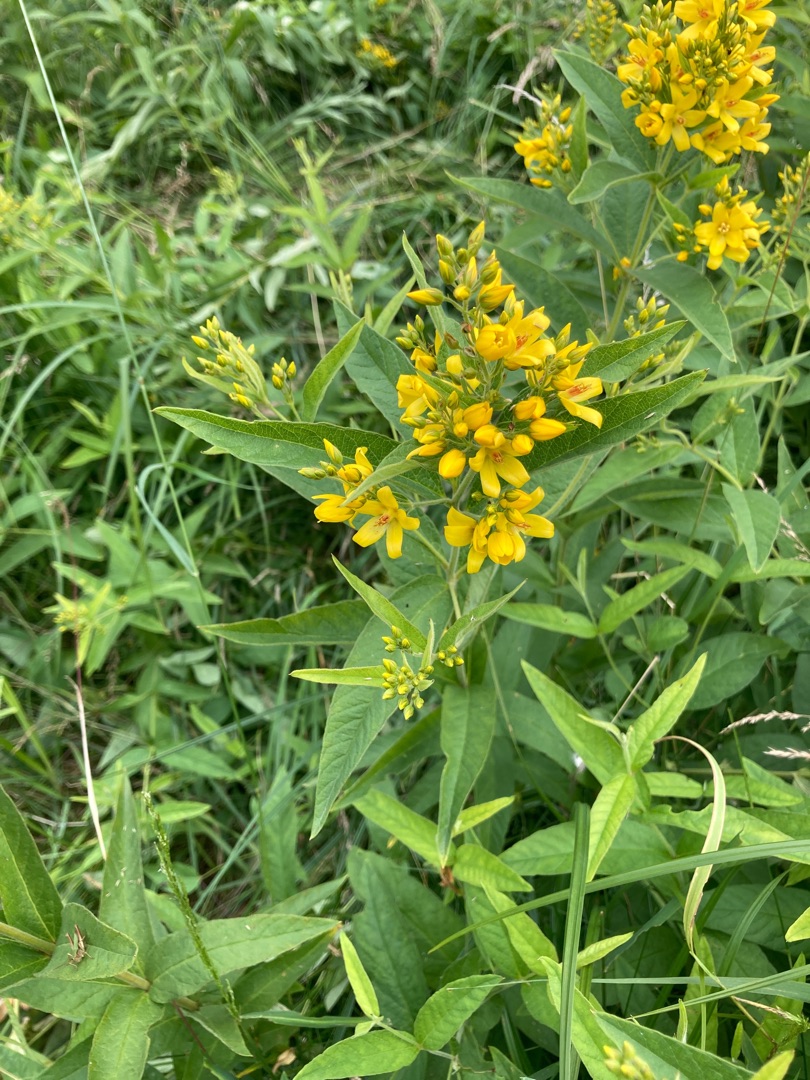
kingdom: Plantae
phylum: Tracheophyta
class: Magnoliopsida
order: Ericales
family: Primulaceae
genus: Lysimachia
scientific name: Lysimachia vulgaris
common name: Almindelig fredløs
